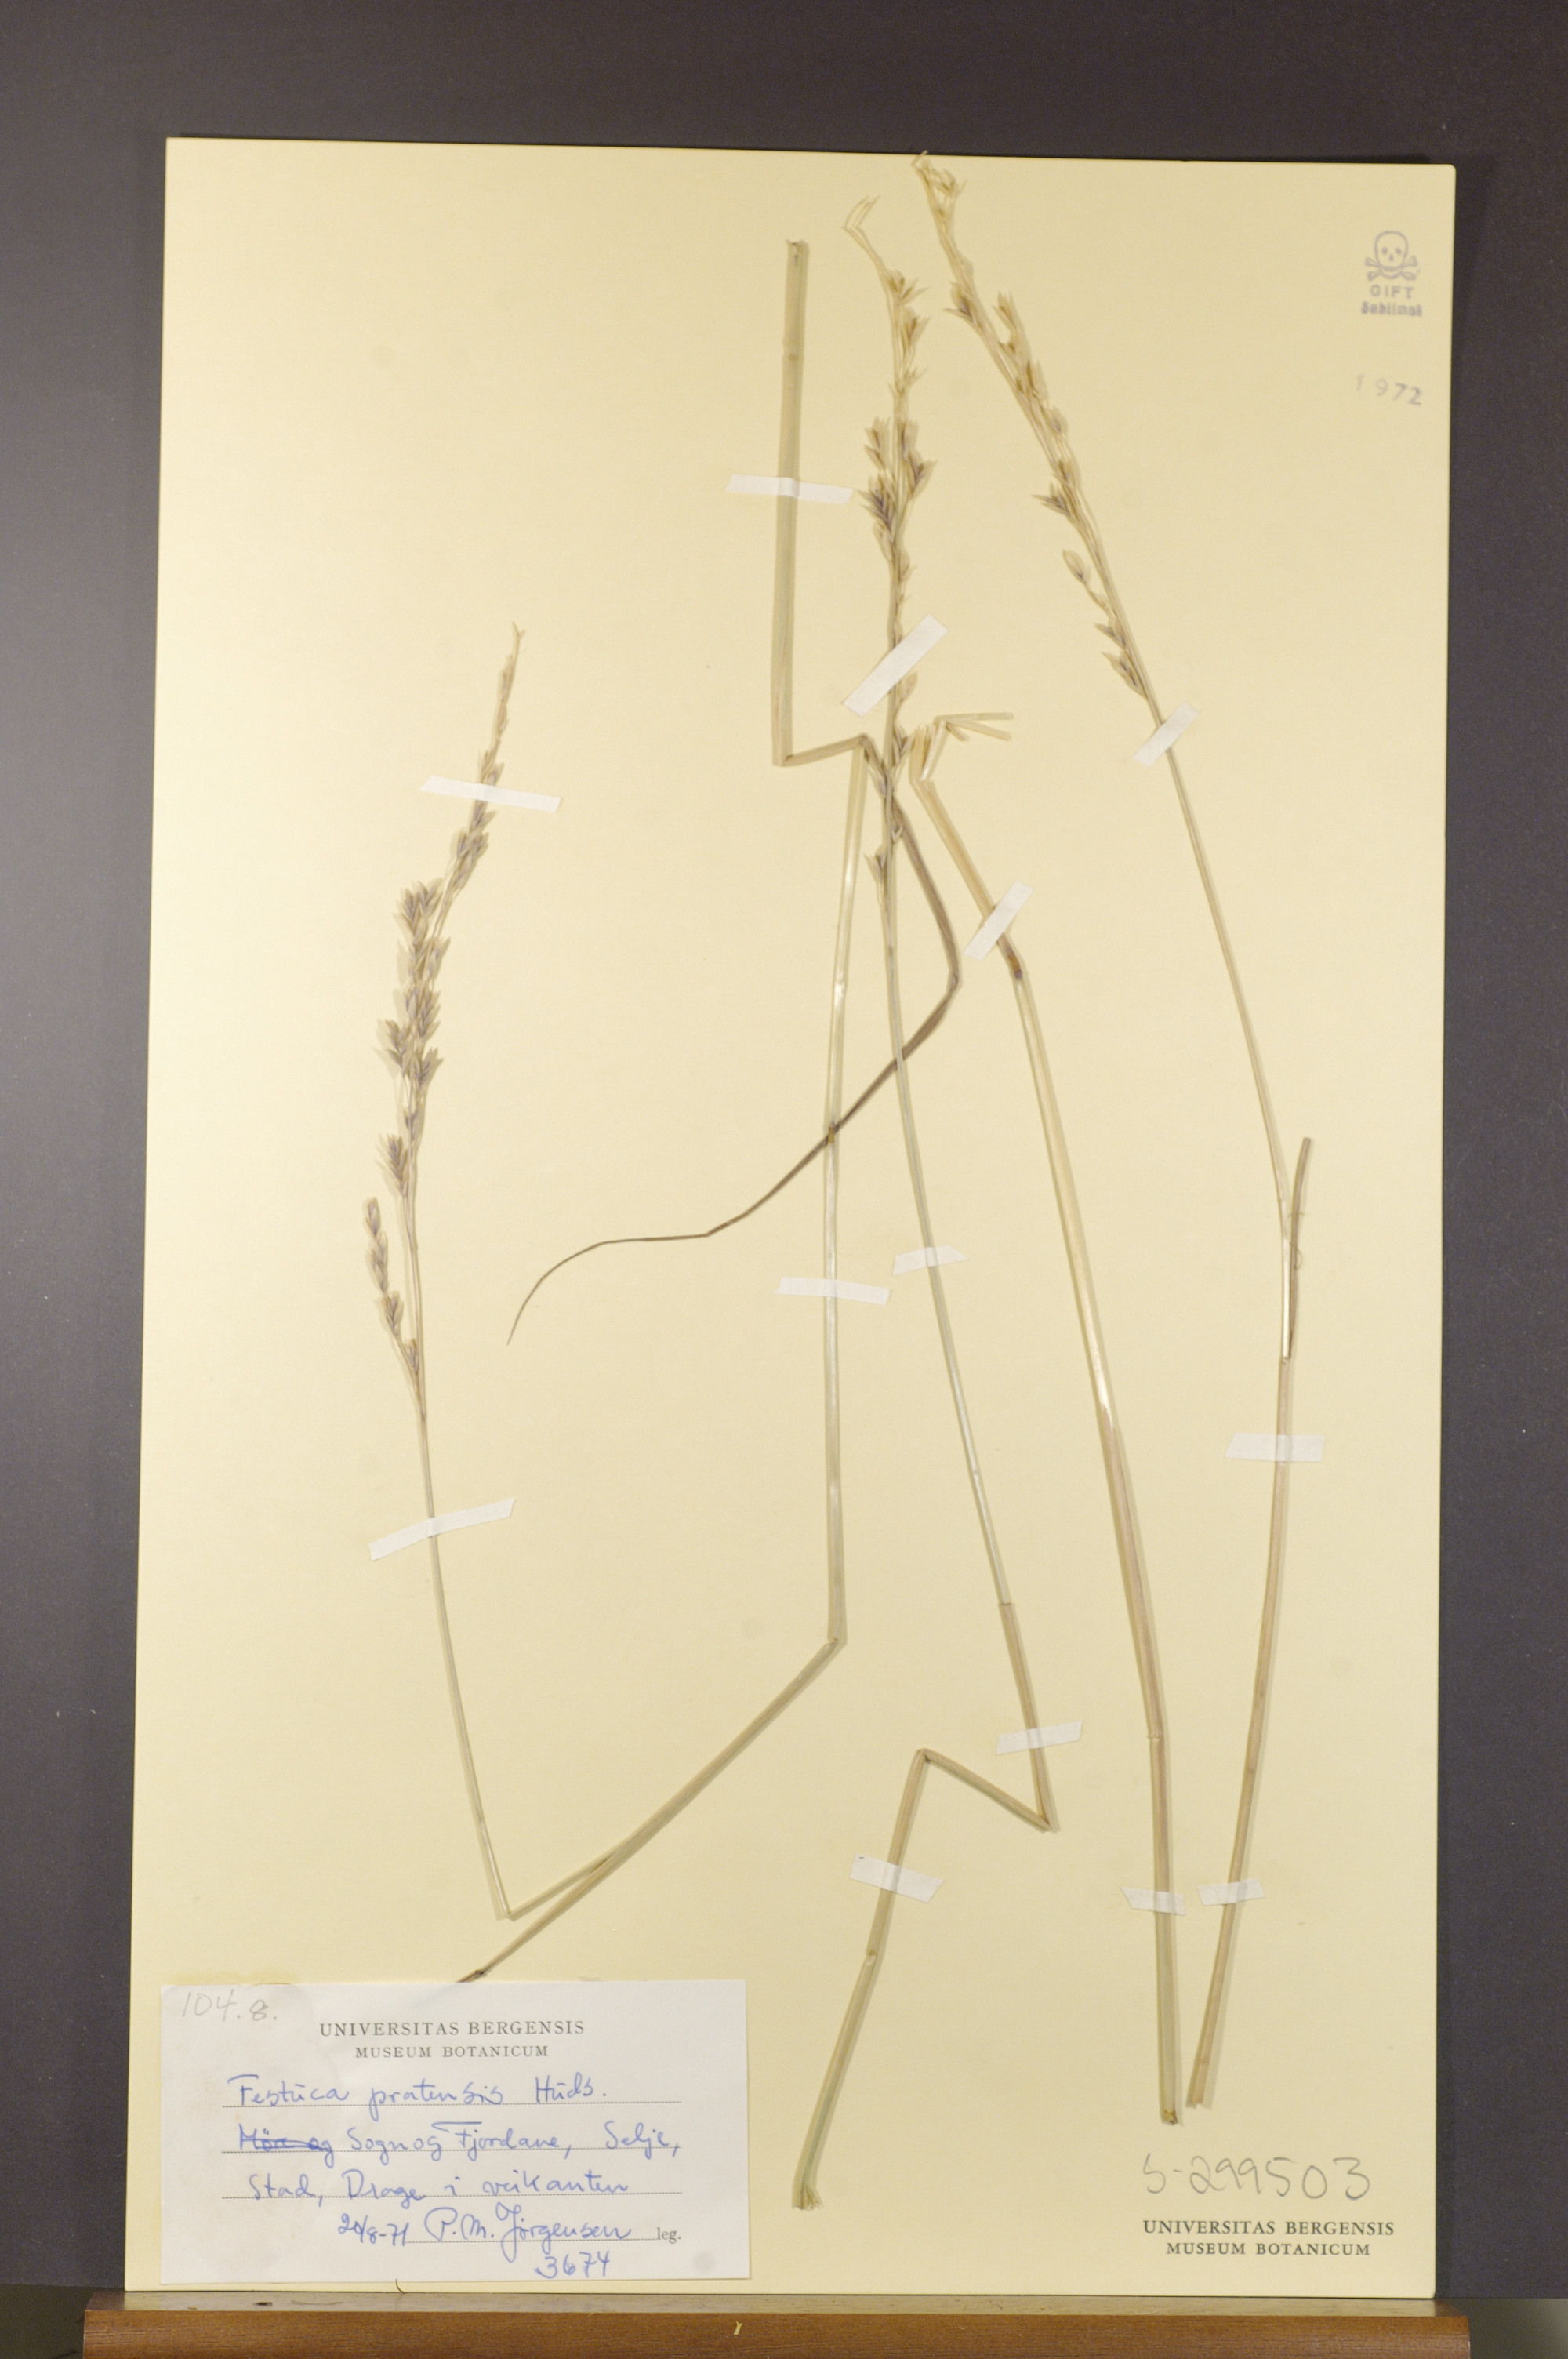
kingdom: Plantae
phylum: Tracheophyta
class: Liliopsida
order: Poales
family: Poaceae
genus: Lolium
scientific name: Lolium pratense
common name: Dover grass
